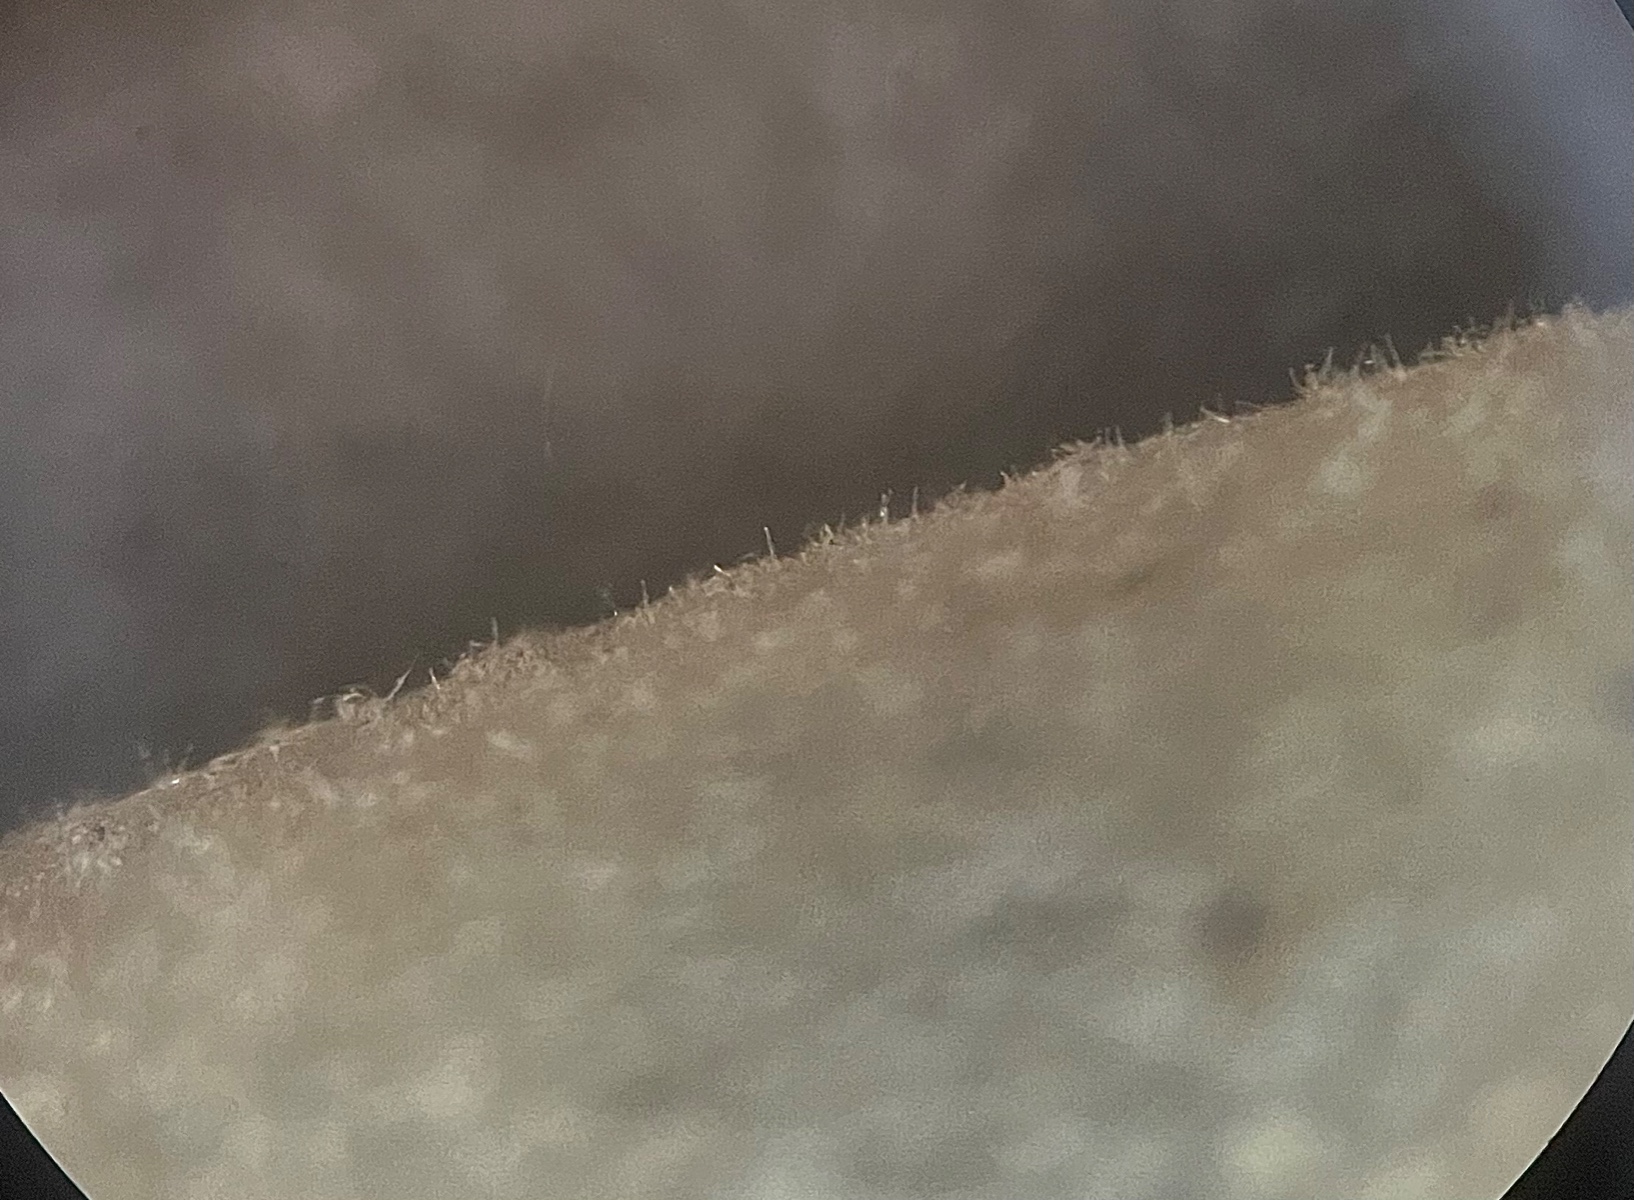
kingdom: Fungi
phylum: Basidiomycota
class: Agaricomycetes
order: Agaricales
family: Psathyrellaceae
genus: Coprinellus
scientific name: Coprinellus micaceus
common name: glimmer-blækhat
